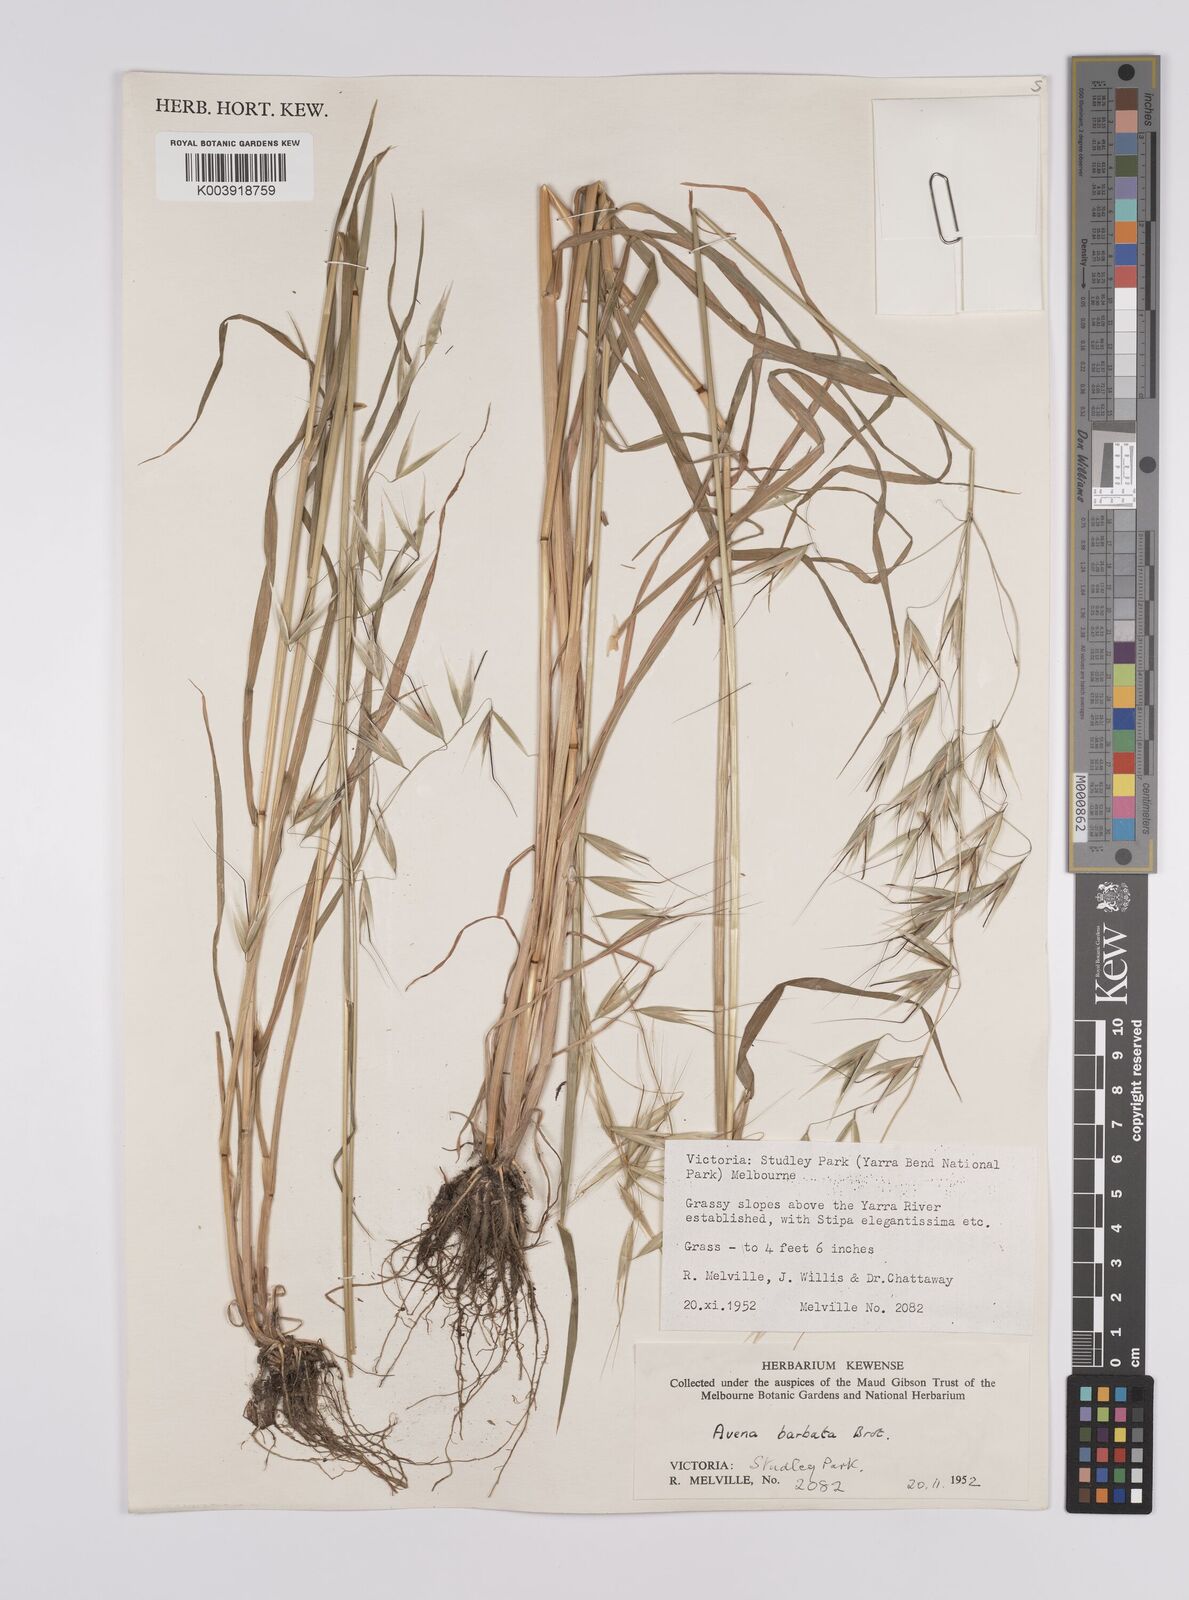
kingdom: Plantae
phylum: Tracheophyta
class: Liliopsida
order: Poales
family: Poaceae
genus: Avena
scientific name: Avena
